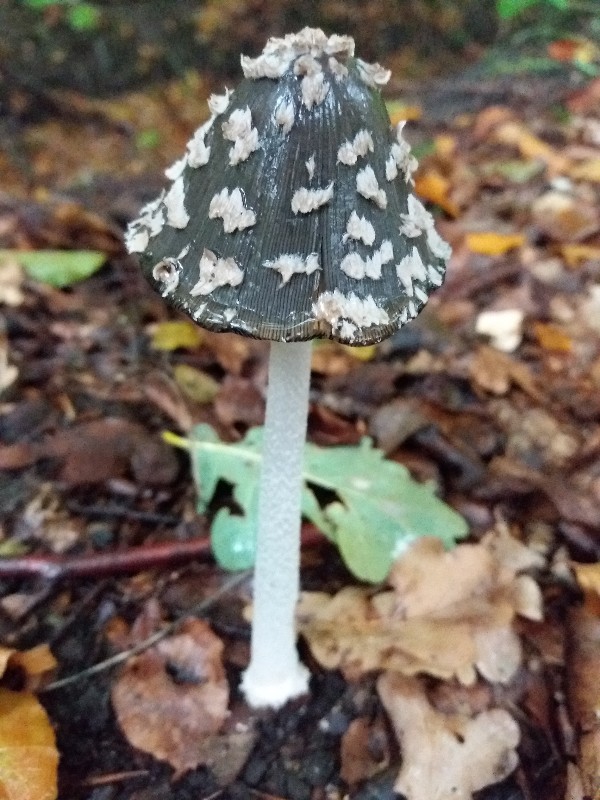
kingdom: Fungi
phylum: Basidiomycota
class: Agaricomycetes
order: Agaricales
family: Psathyrellaceae
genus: Coprinopsis
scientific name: Coprinopsis picacea
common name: skade-blækhat
